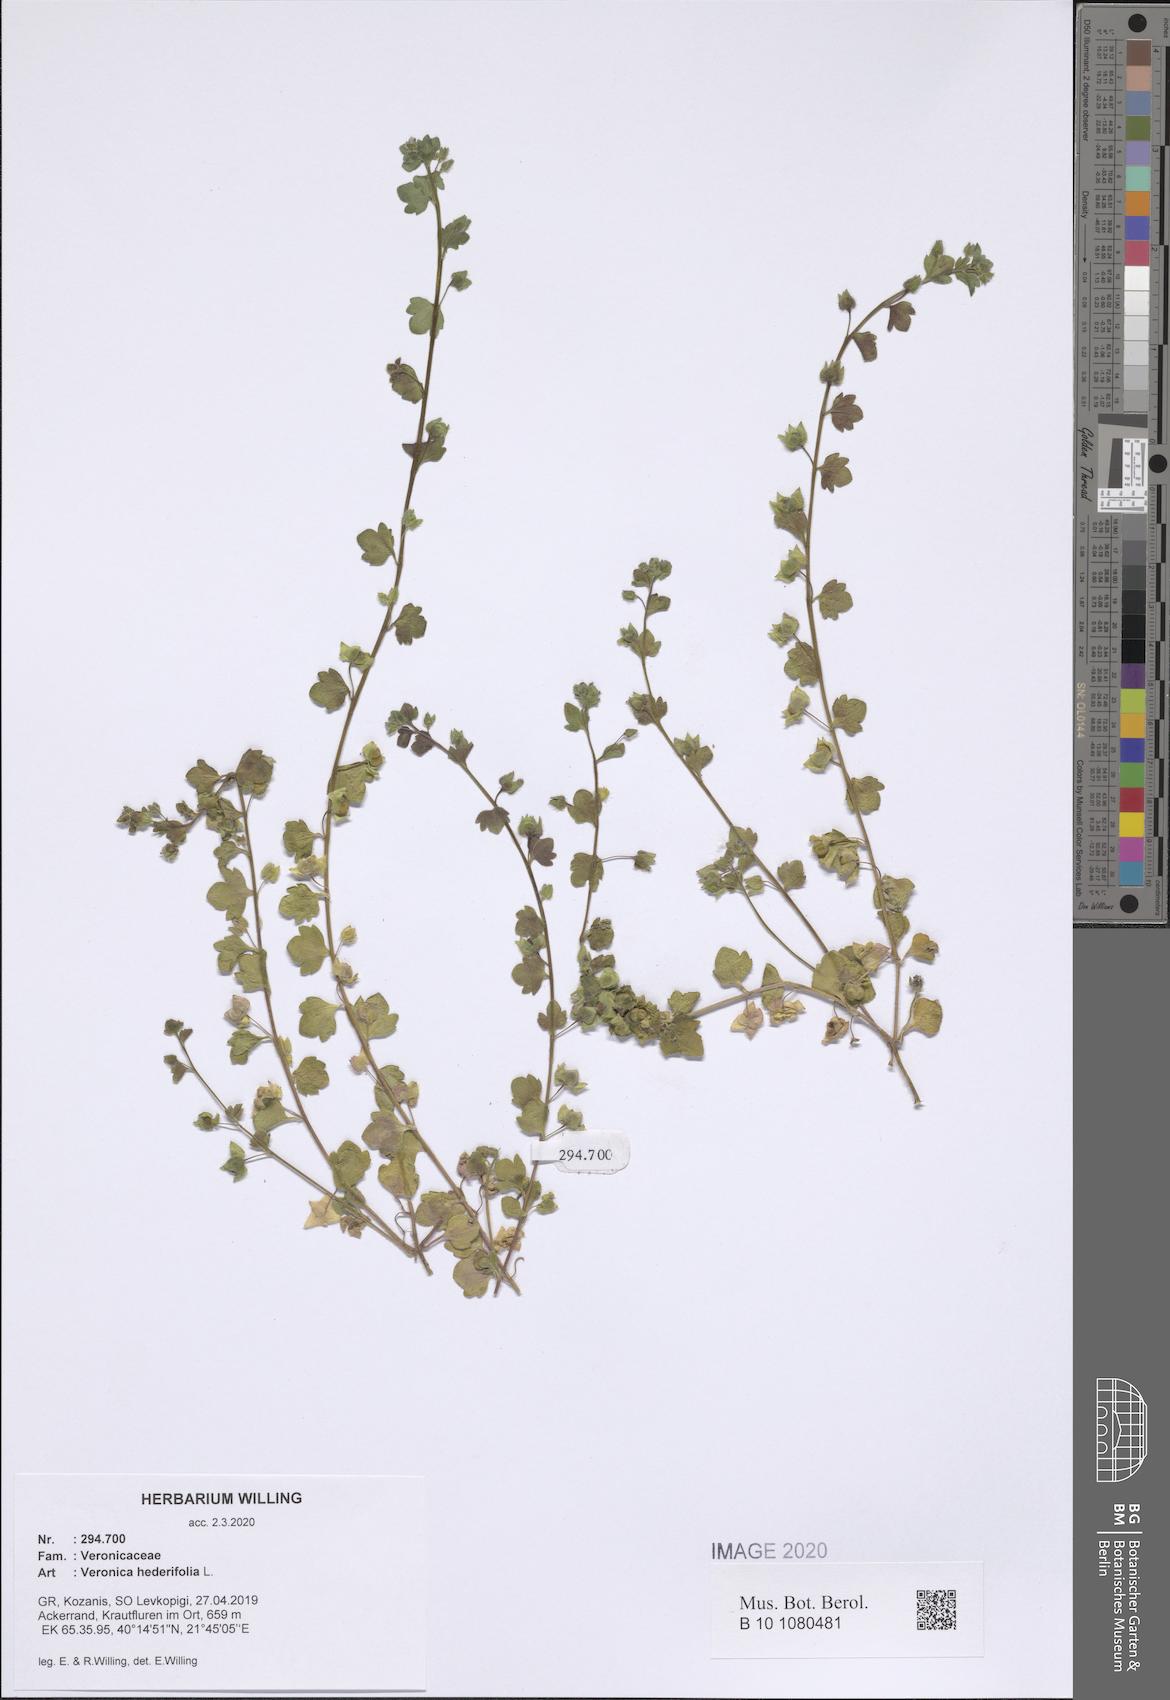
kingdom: Plantae
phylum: Tracheophyta
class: Magnoliopsida
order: Lamiales
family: Plantaginaceae
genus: Veronica
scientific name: Veronica hederifolia
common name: Ivy-leaved speedwell
